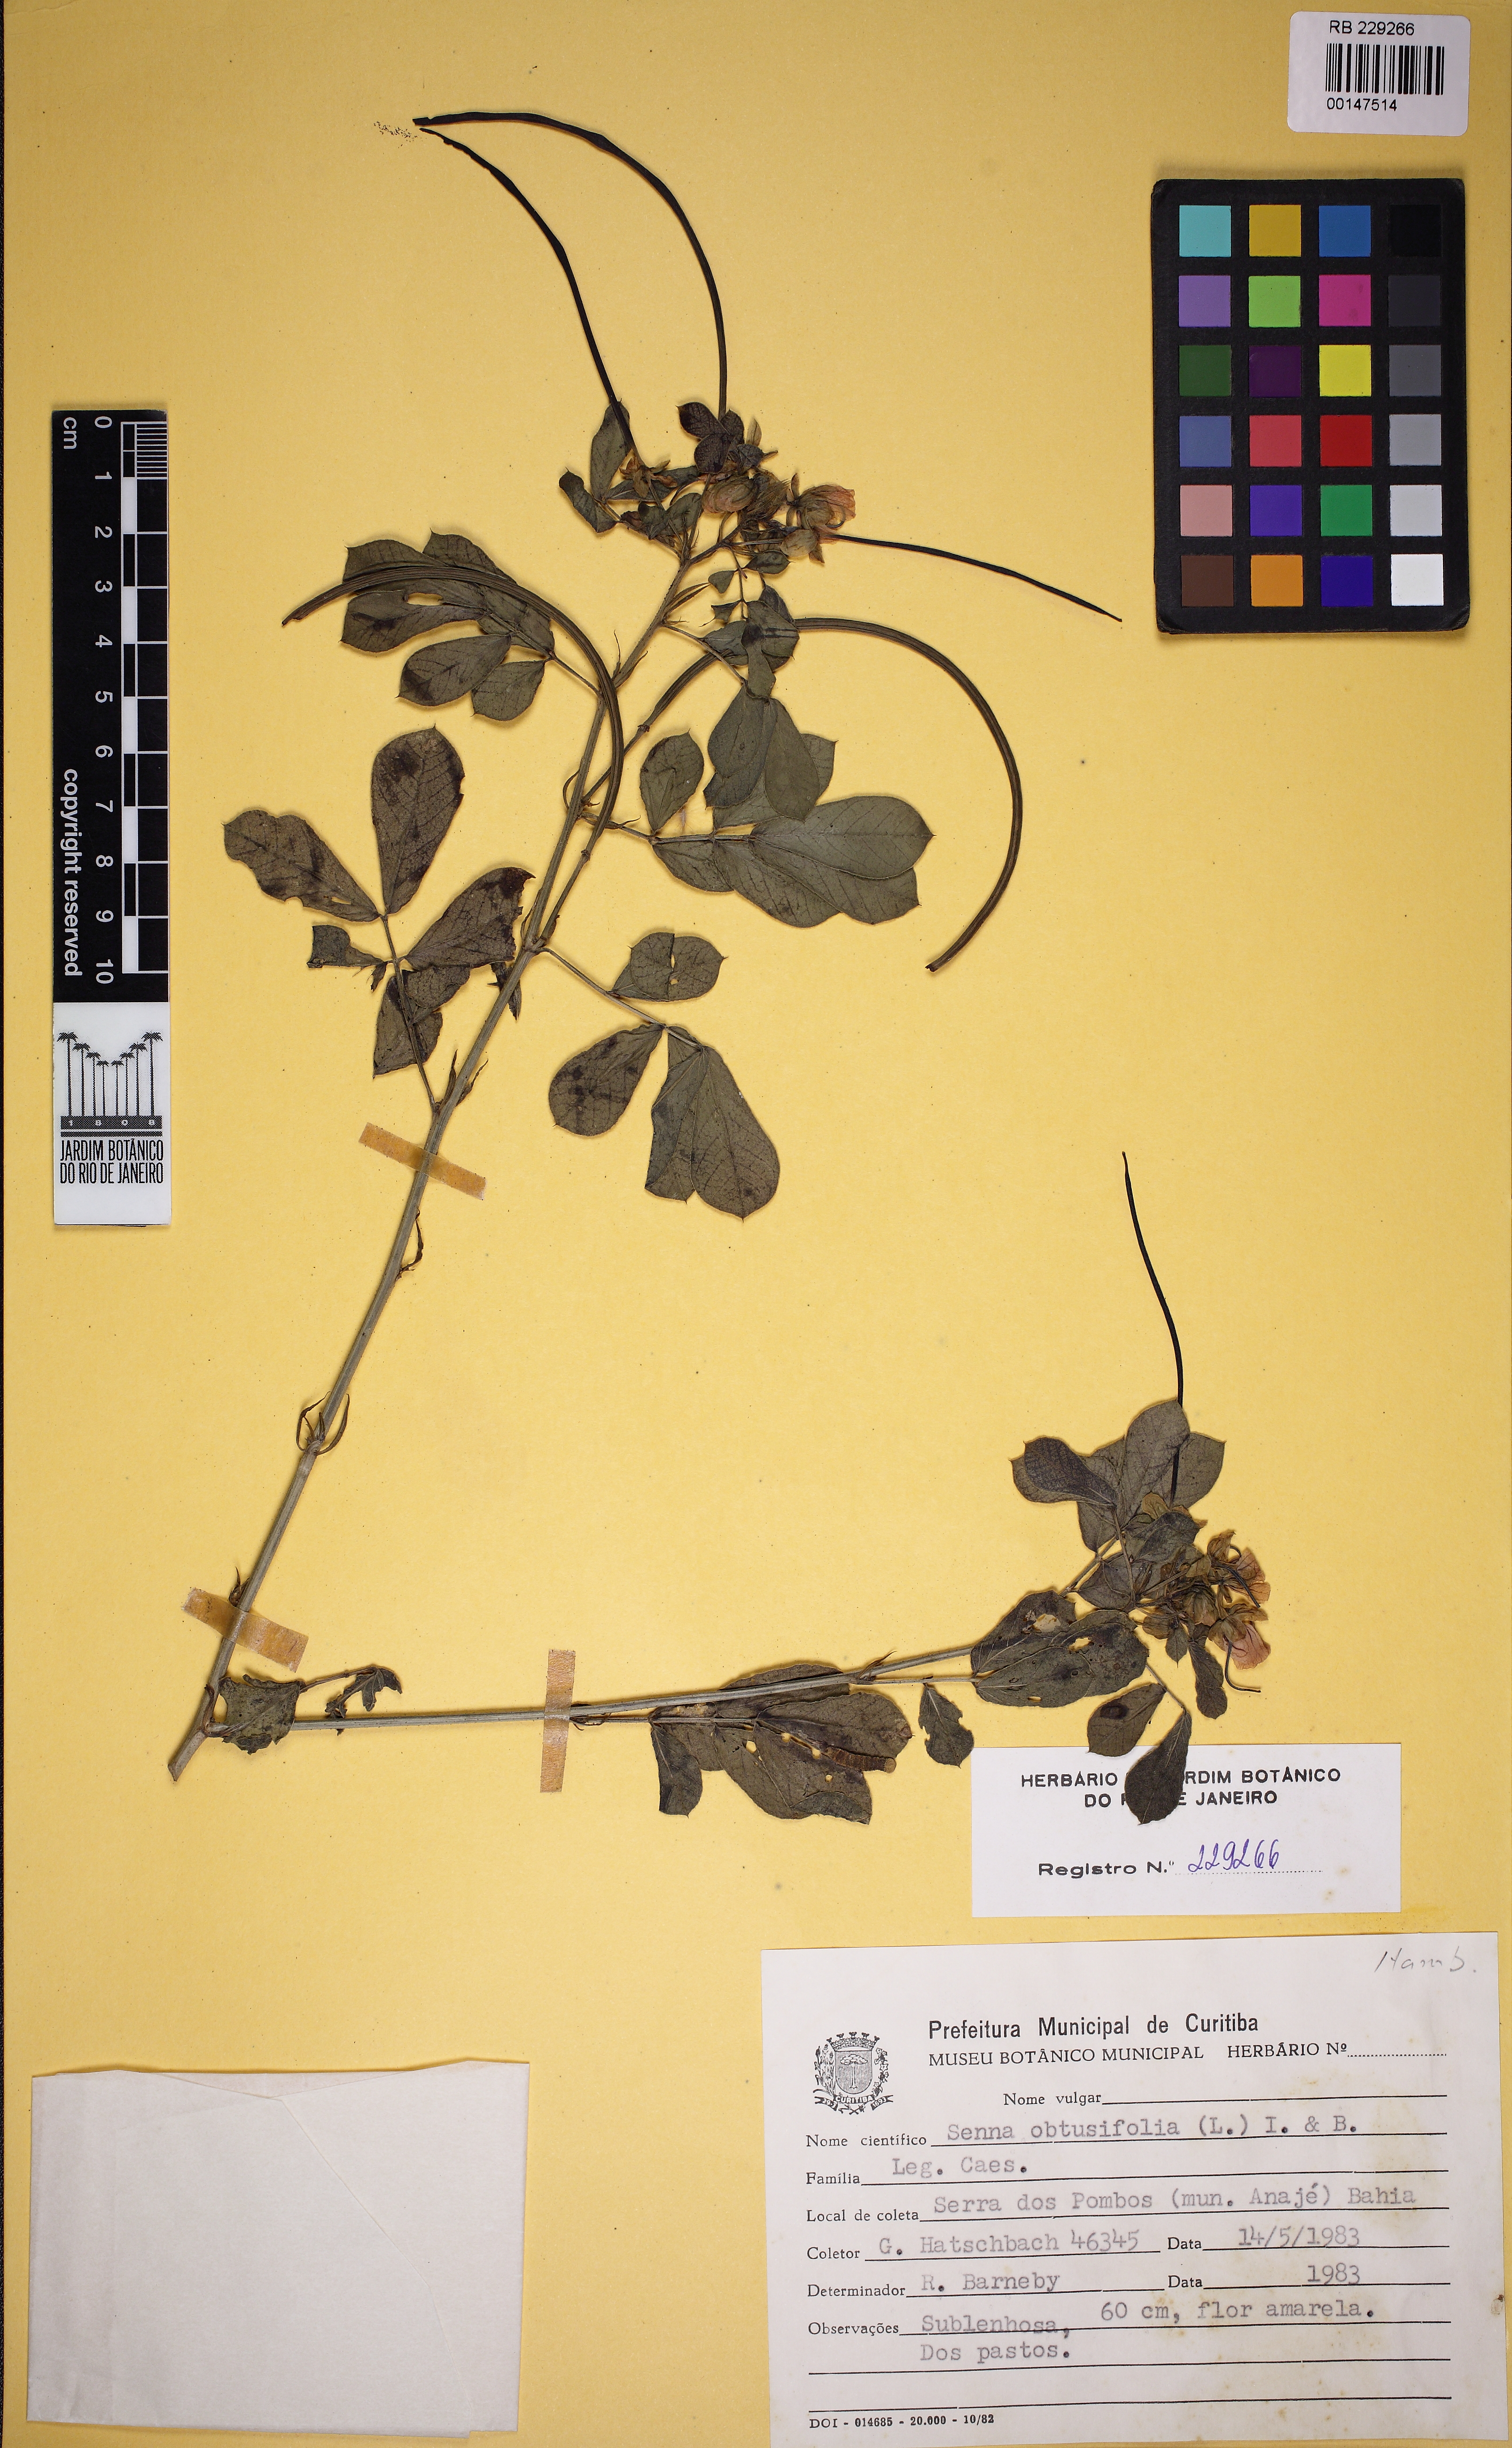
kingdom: Plantae
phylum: Tracheophyta
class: Magnoliopsida
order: Fabales
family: Fabaceae
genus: Senna
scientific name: Senna obtusifolia
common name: Java-bean
